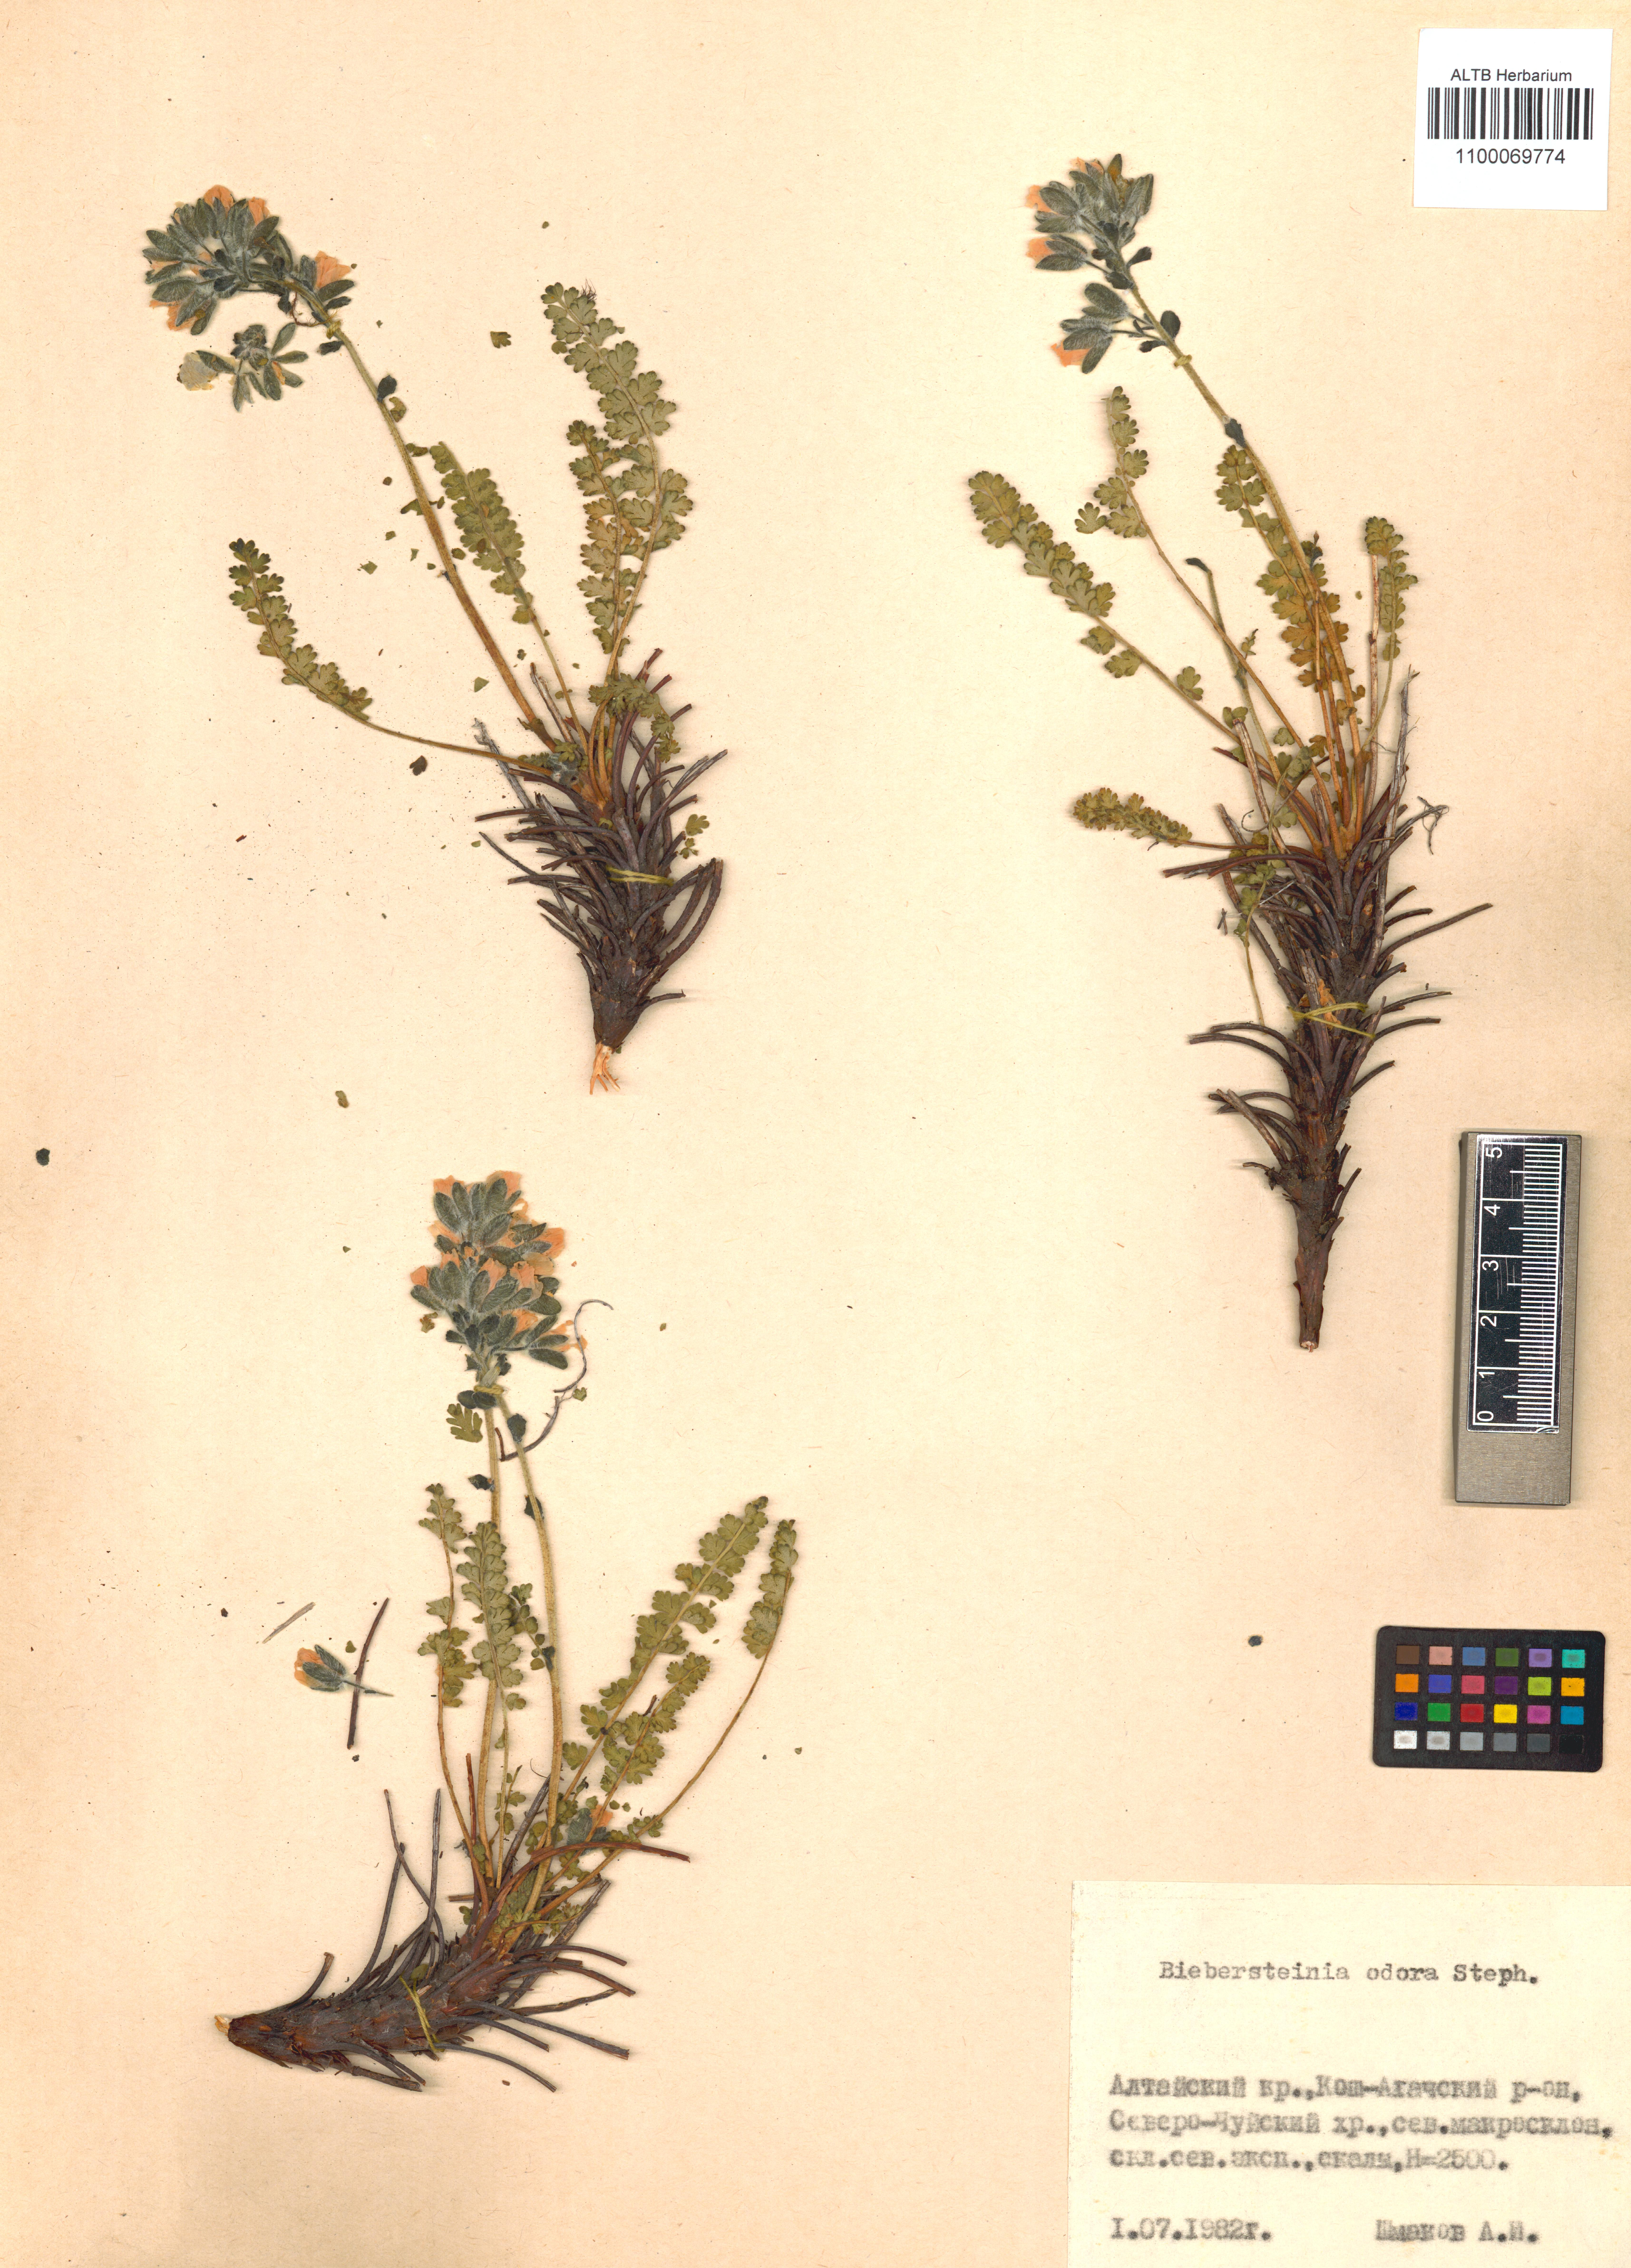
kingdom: Plantae
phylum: Tracheophyta
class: Magnoliopsida
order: Sapindales
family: Biebersteiniaceae
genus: Biebersteinia
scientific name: Biebersteinia odora
